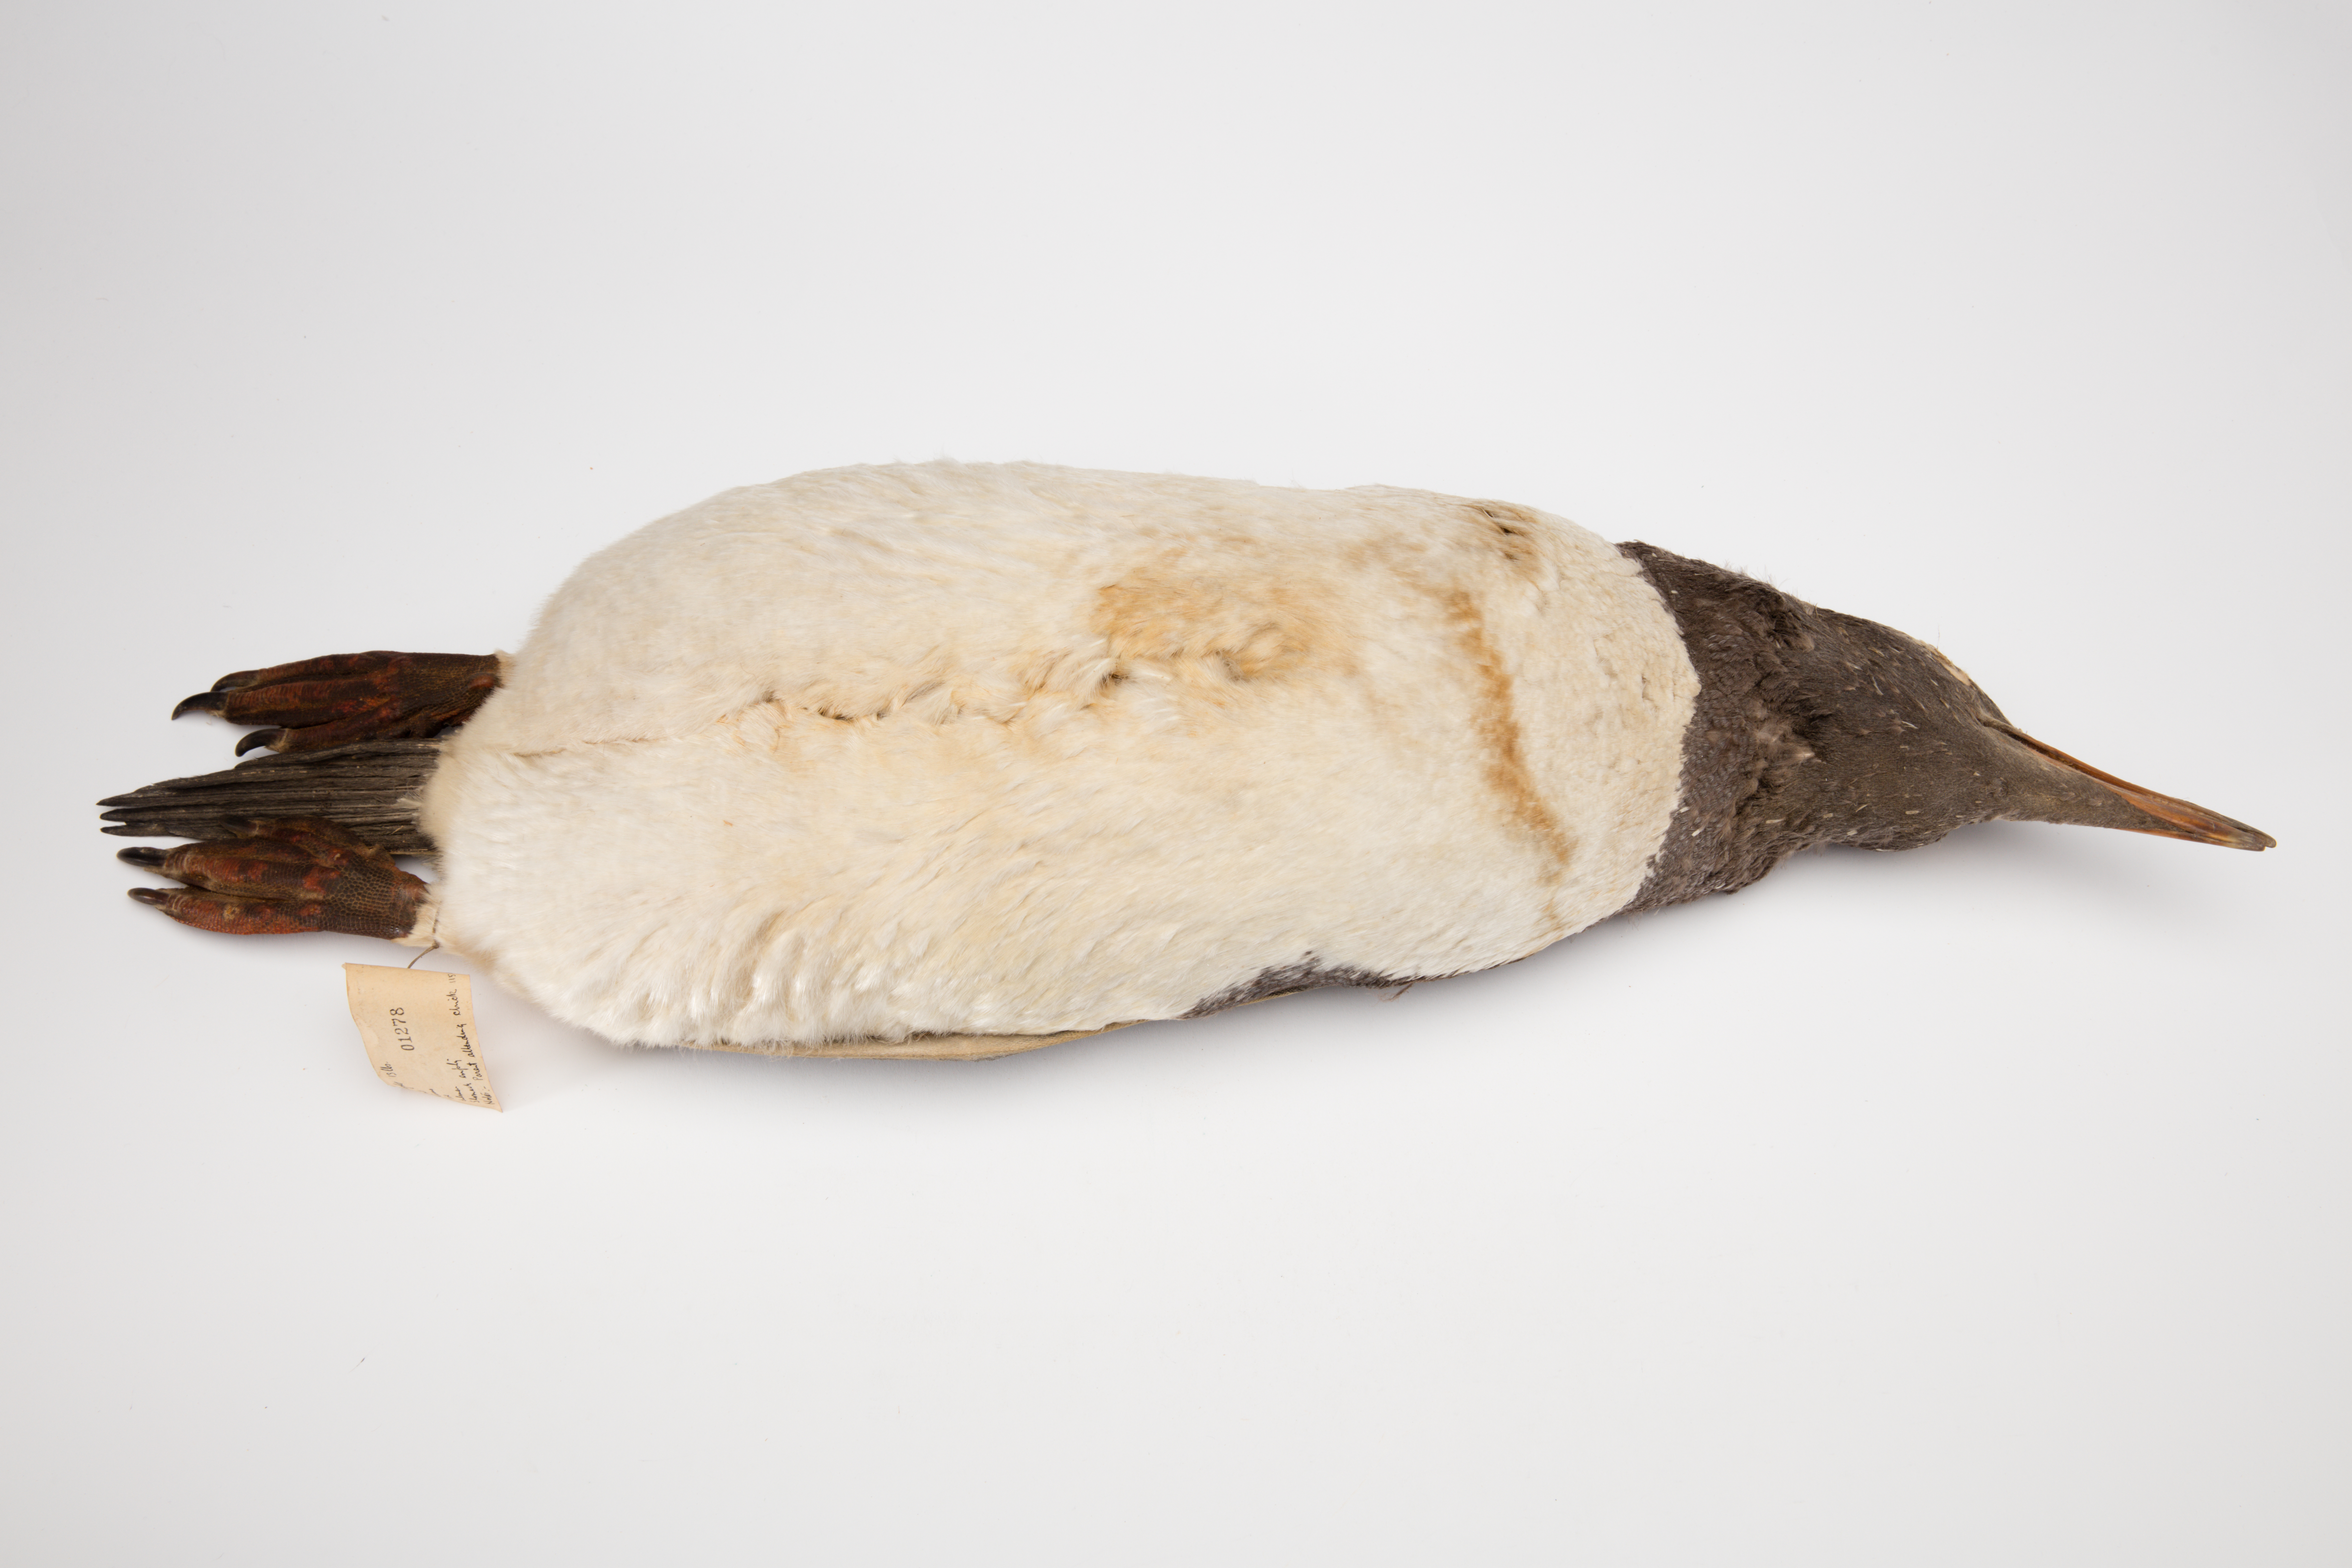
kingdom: Animalia
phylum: Chordata
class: Aves
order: Sphenisciformes
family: Spheniscidae
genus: Pygoscelis
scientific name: Pygoscelis papua
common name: Gentoo penguin
